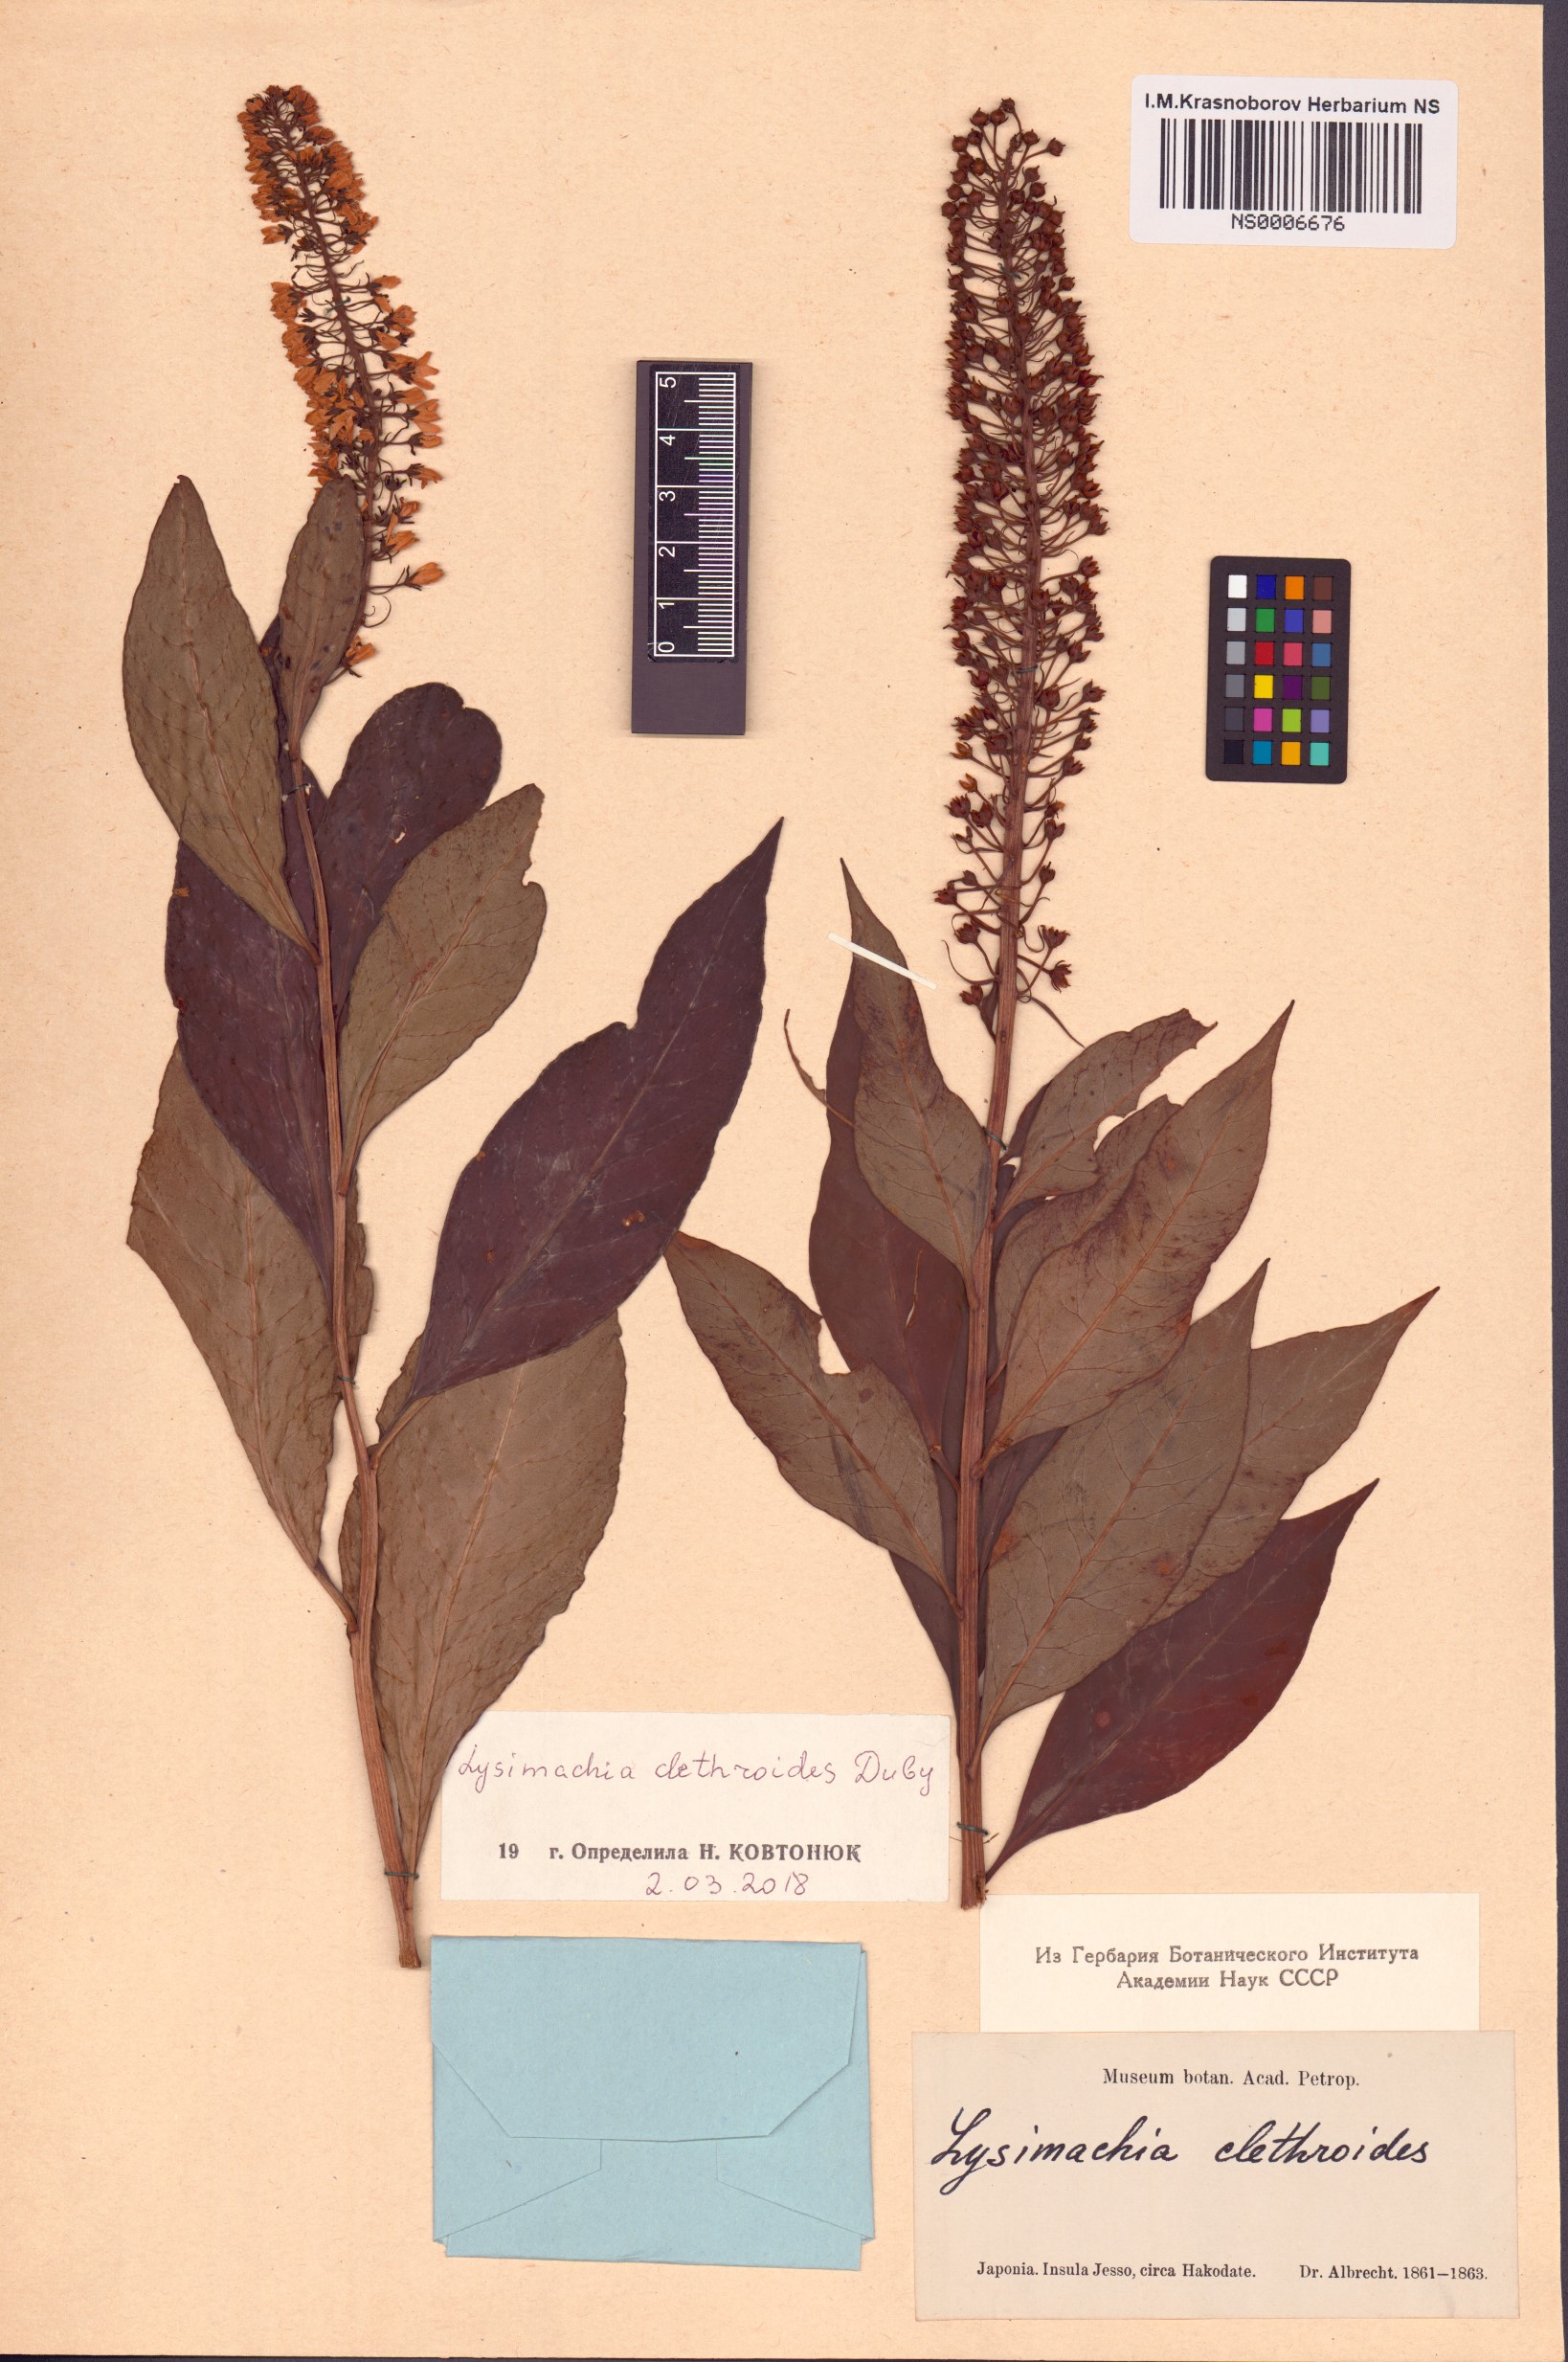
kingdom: Plantae
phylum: Tracheophyta
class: Magnoliopsida
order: Ericales
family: Primulaceae
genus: Lysimachia
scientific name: Lysimachia clethroides
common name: Gooseneck loosestrife
